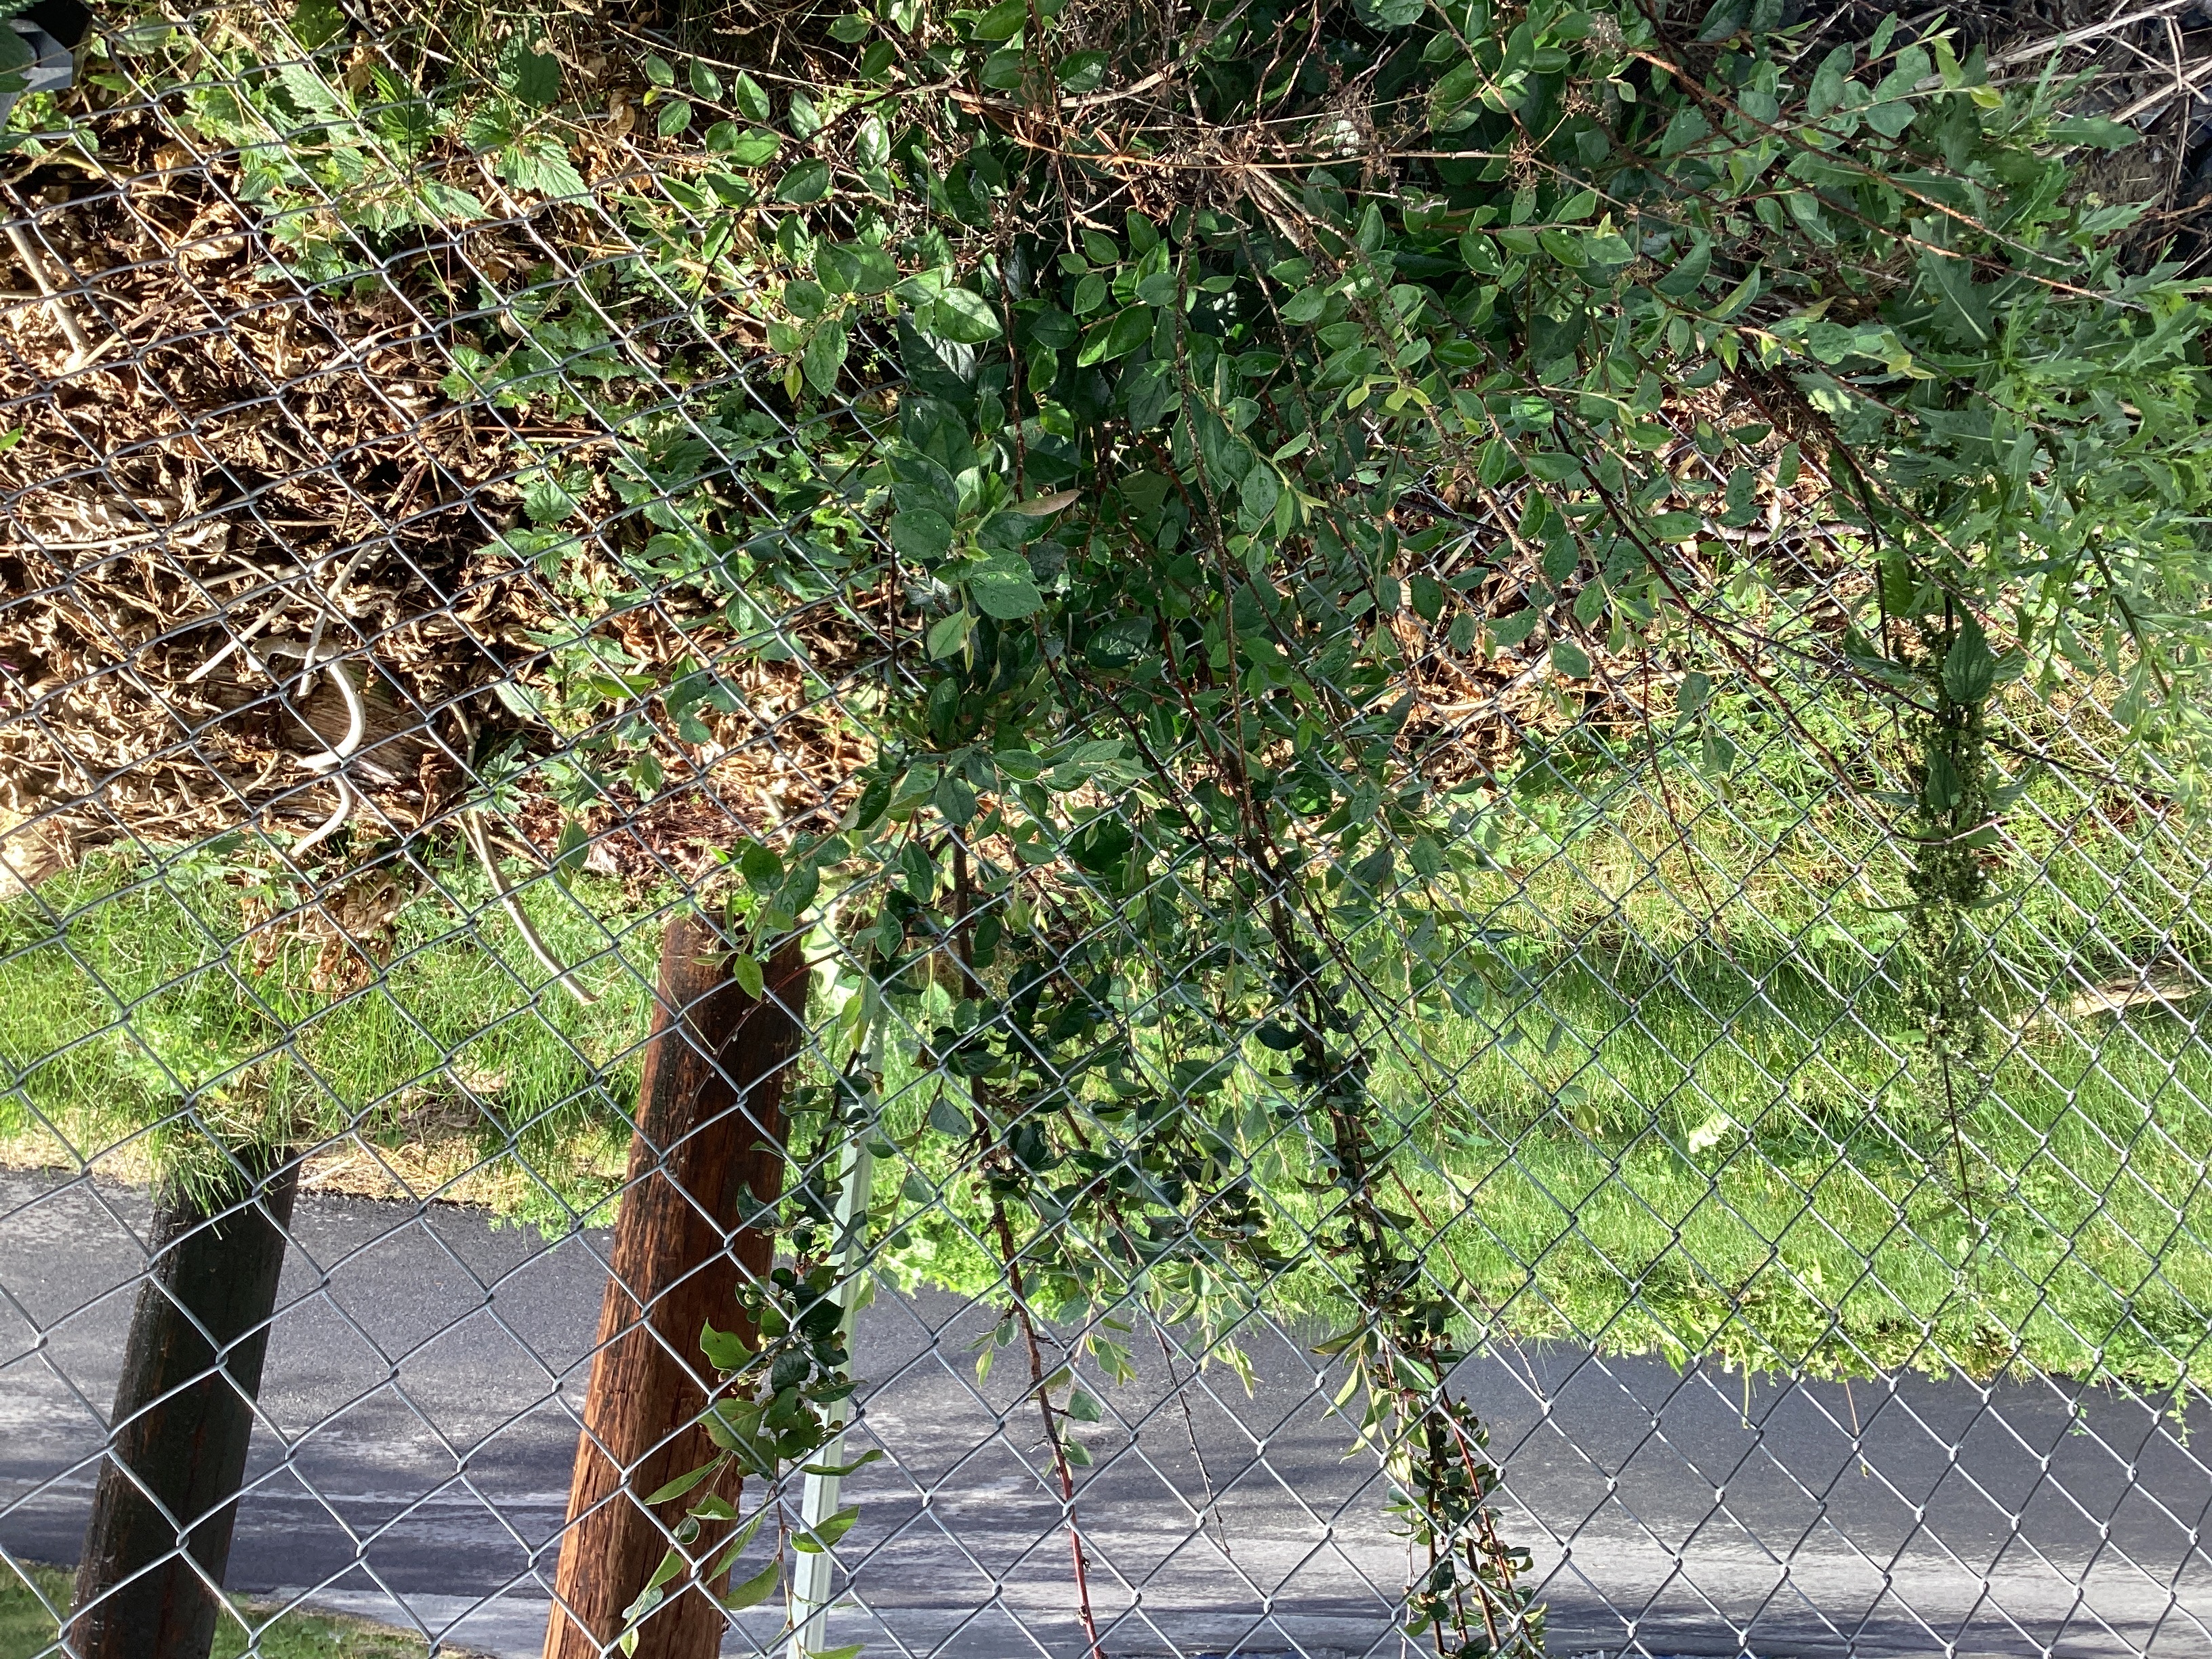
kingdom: Plantae
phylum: Tracheophyta
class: Magnoliopsida
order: Rosales
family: Rosaceae
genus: Cotoneaster
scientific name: Cotoneaster acutifolius
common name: blankmispel
